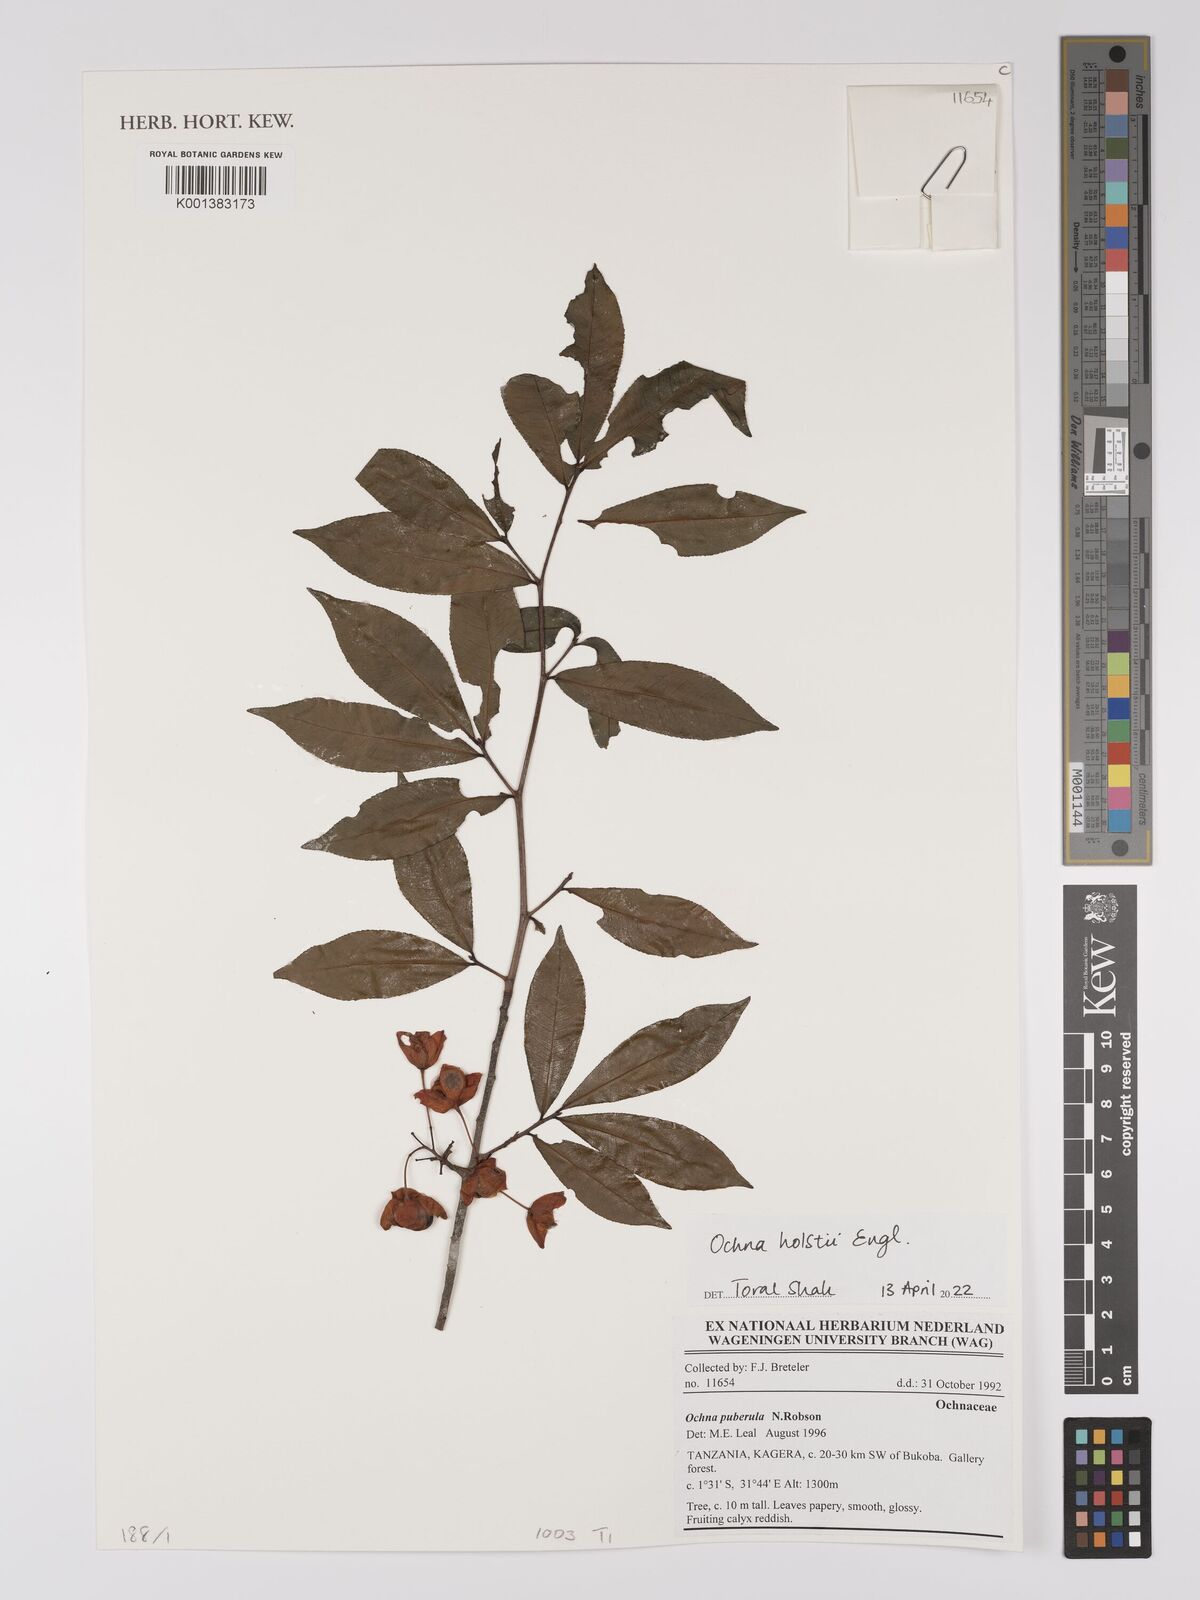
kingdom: Plantae
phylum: Tracheophyta
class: Magnoliopsida
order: Malpighiales
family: Ochnaceae
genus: Ochna
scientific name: Ochna holstii
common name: Red ironwood
